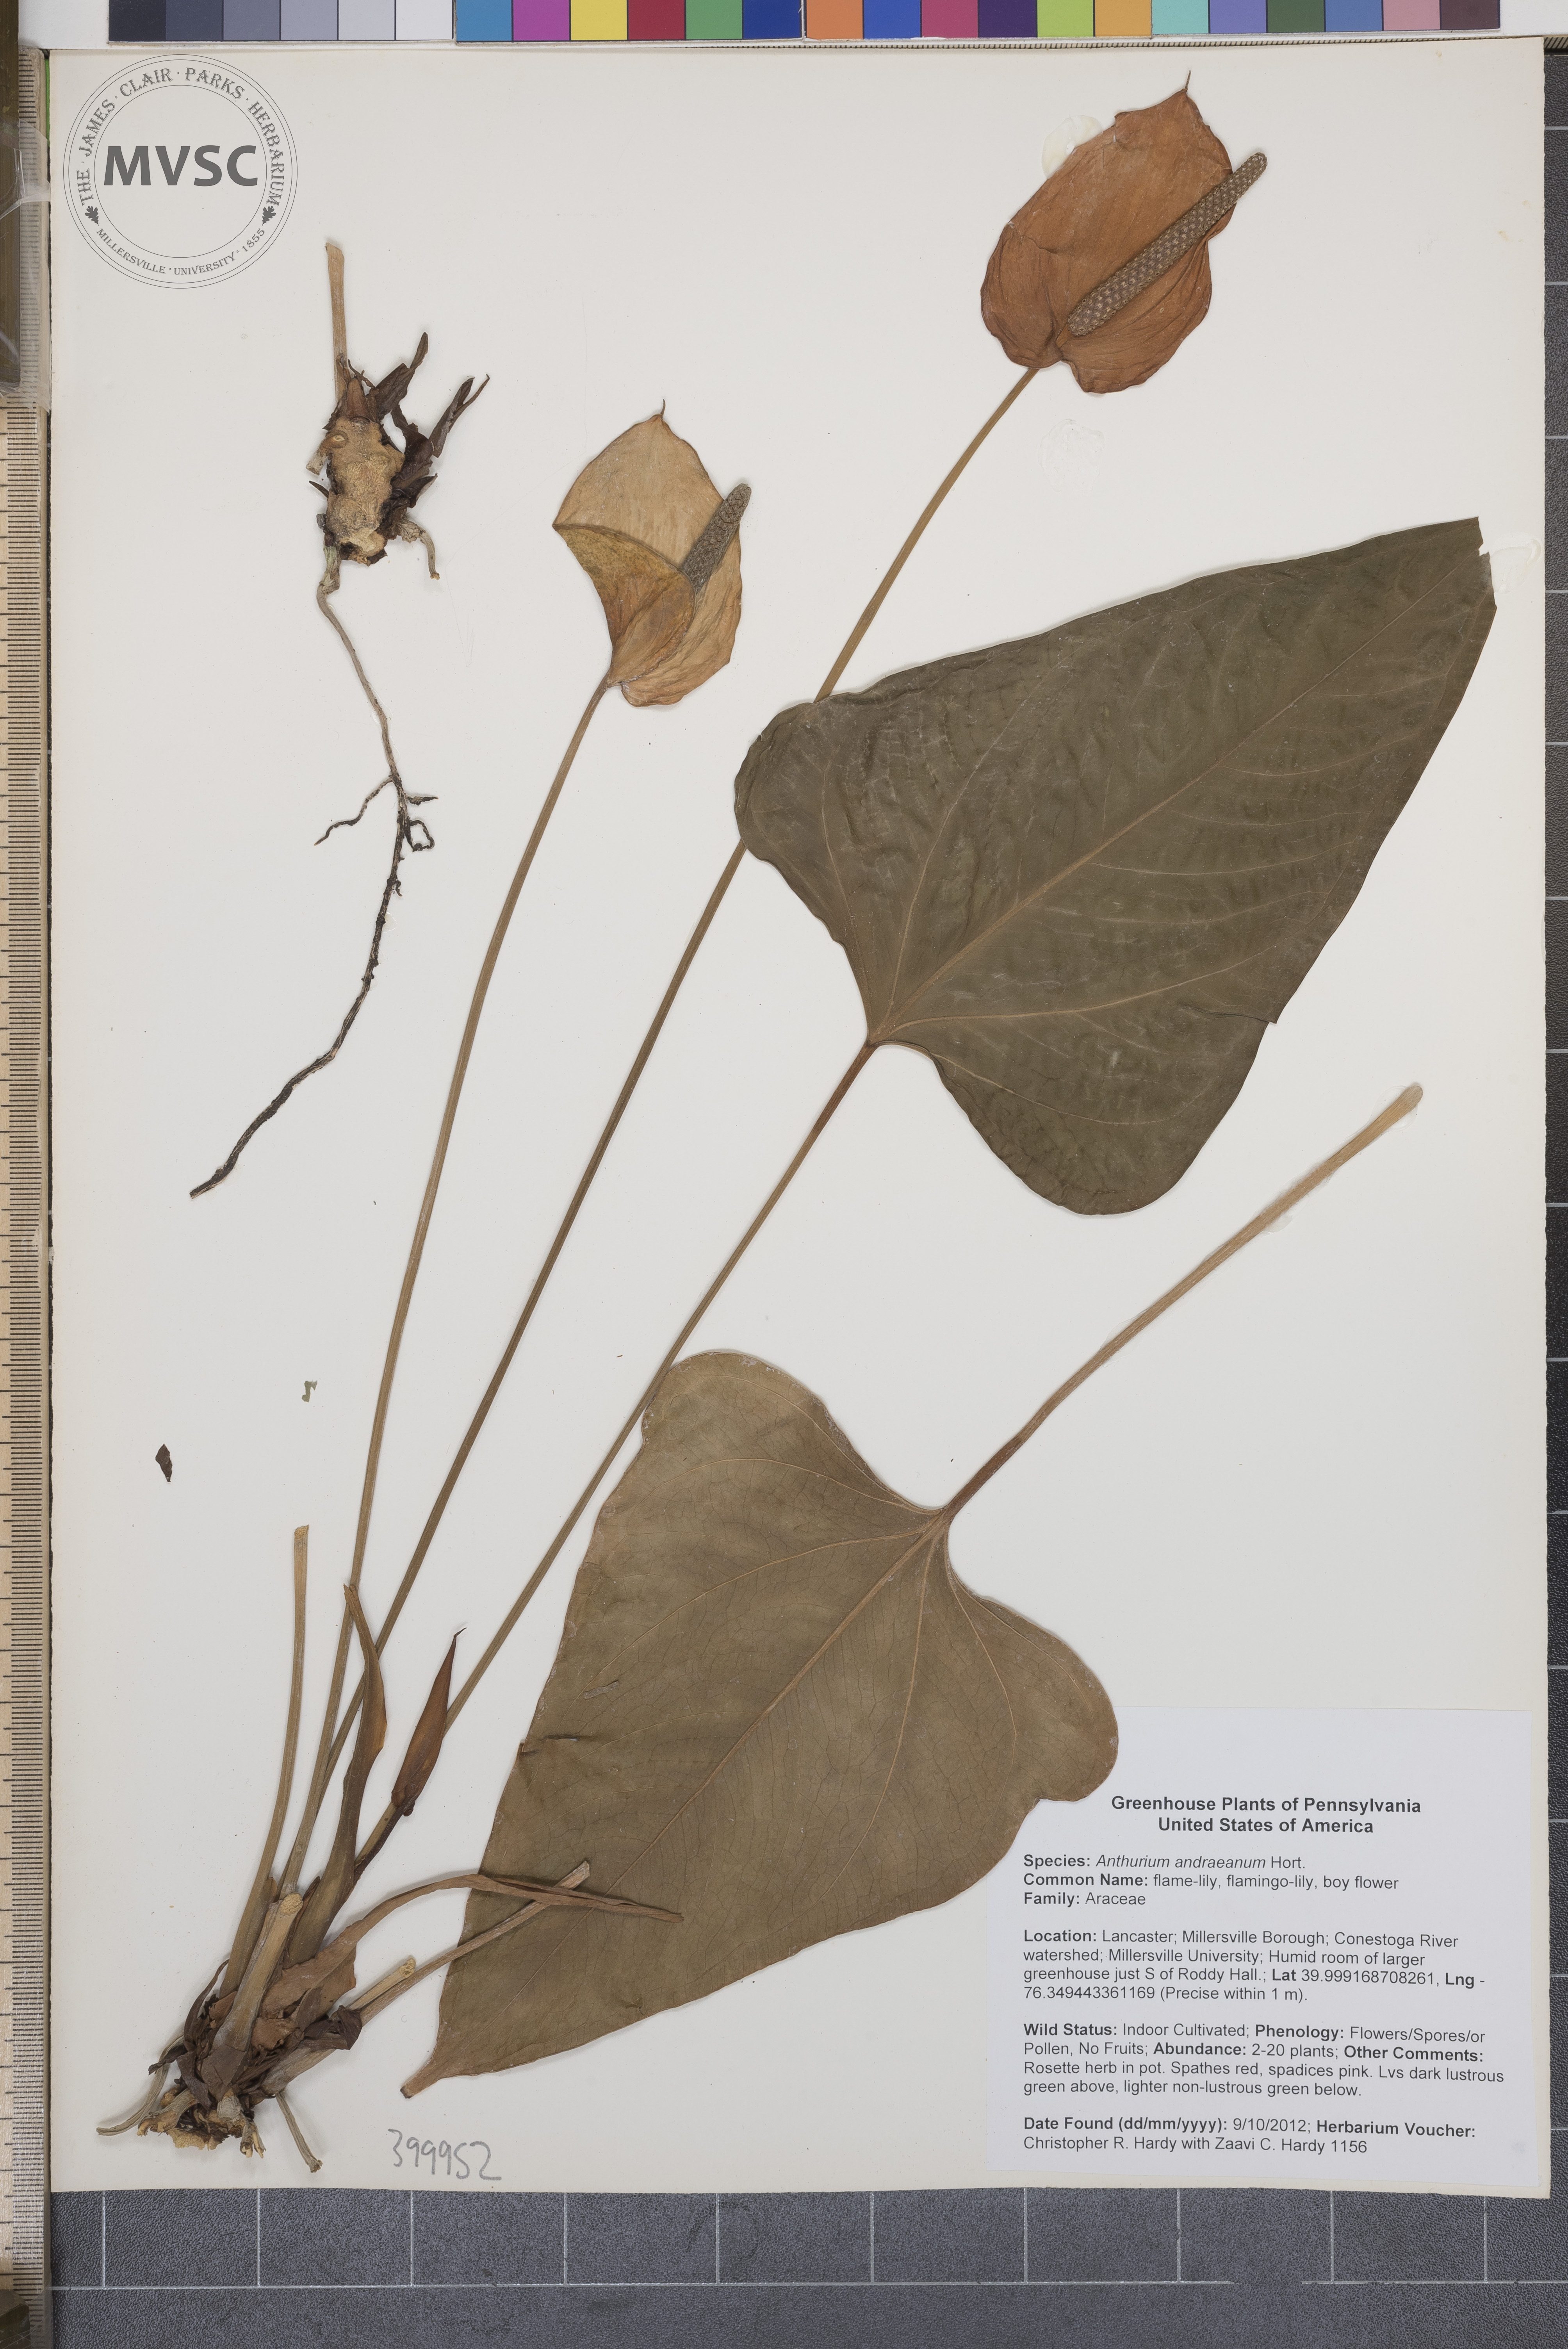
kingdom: Plantae
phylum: Tracheophyta
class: Liliopsida
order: Alismatales
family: Araceae
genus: Anthurium
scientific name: Anthurium andraeanum
